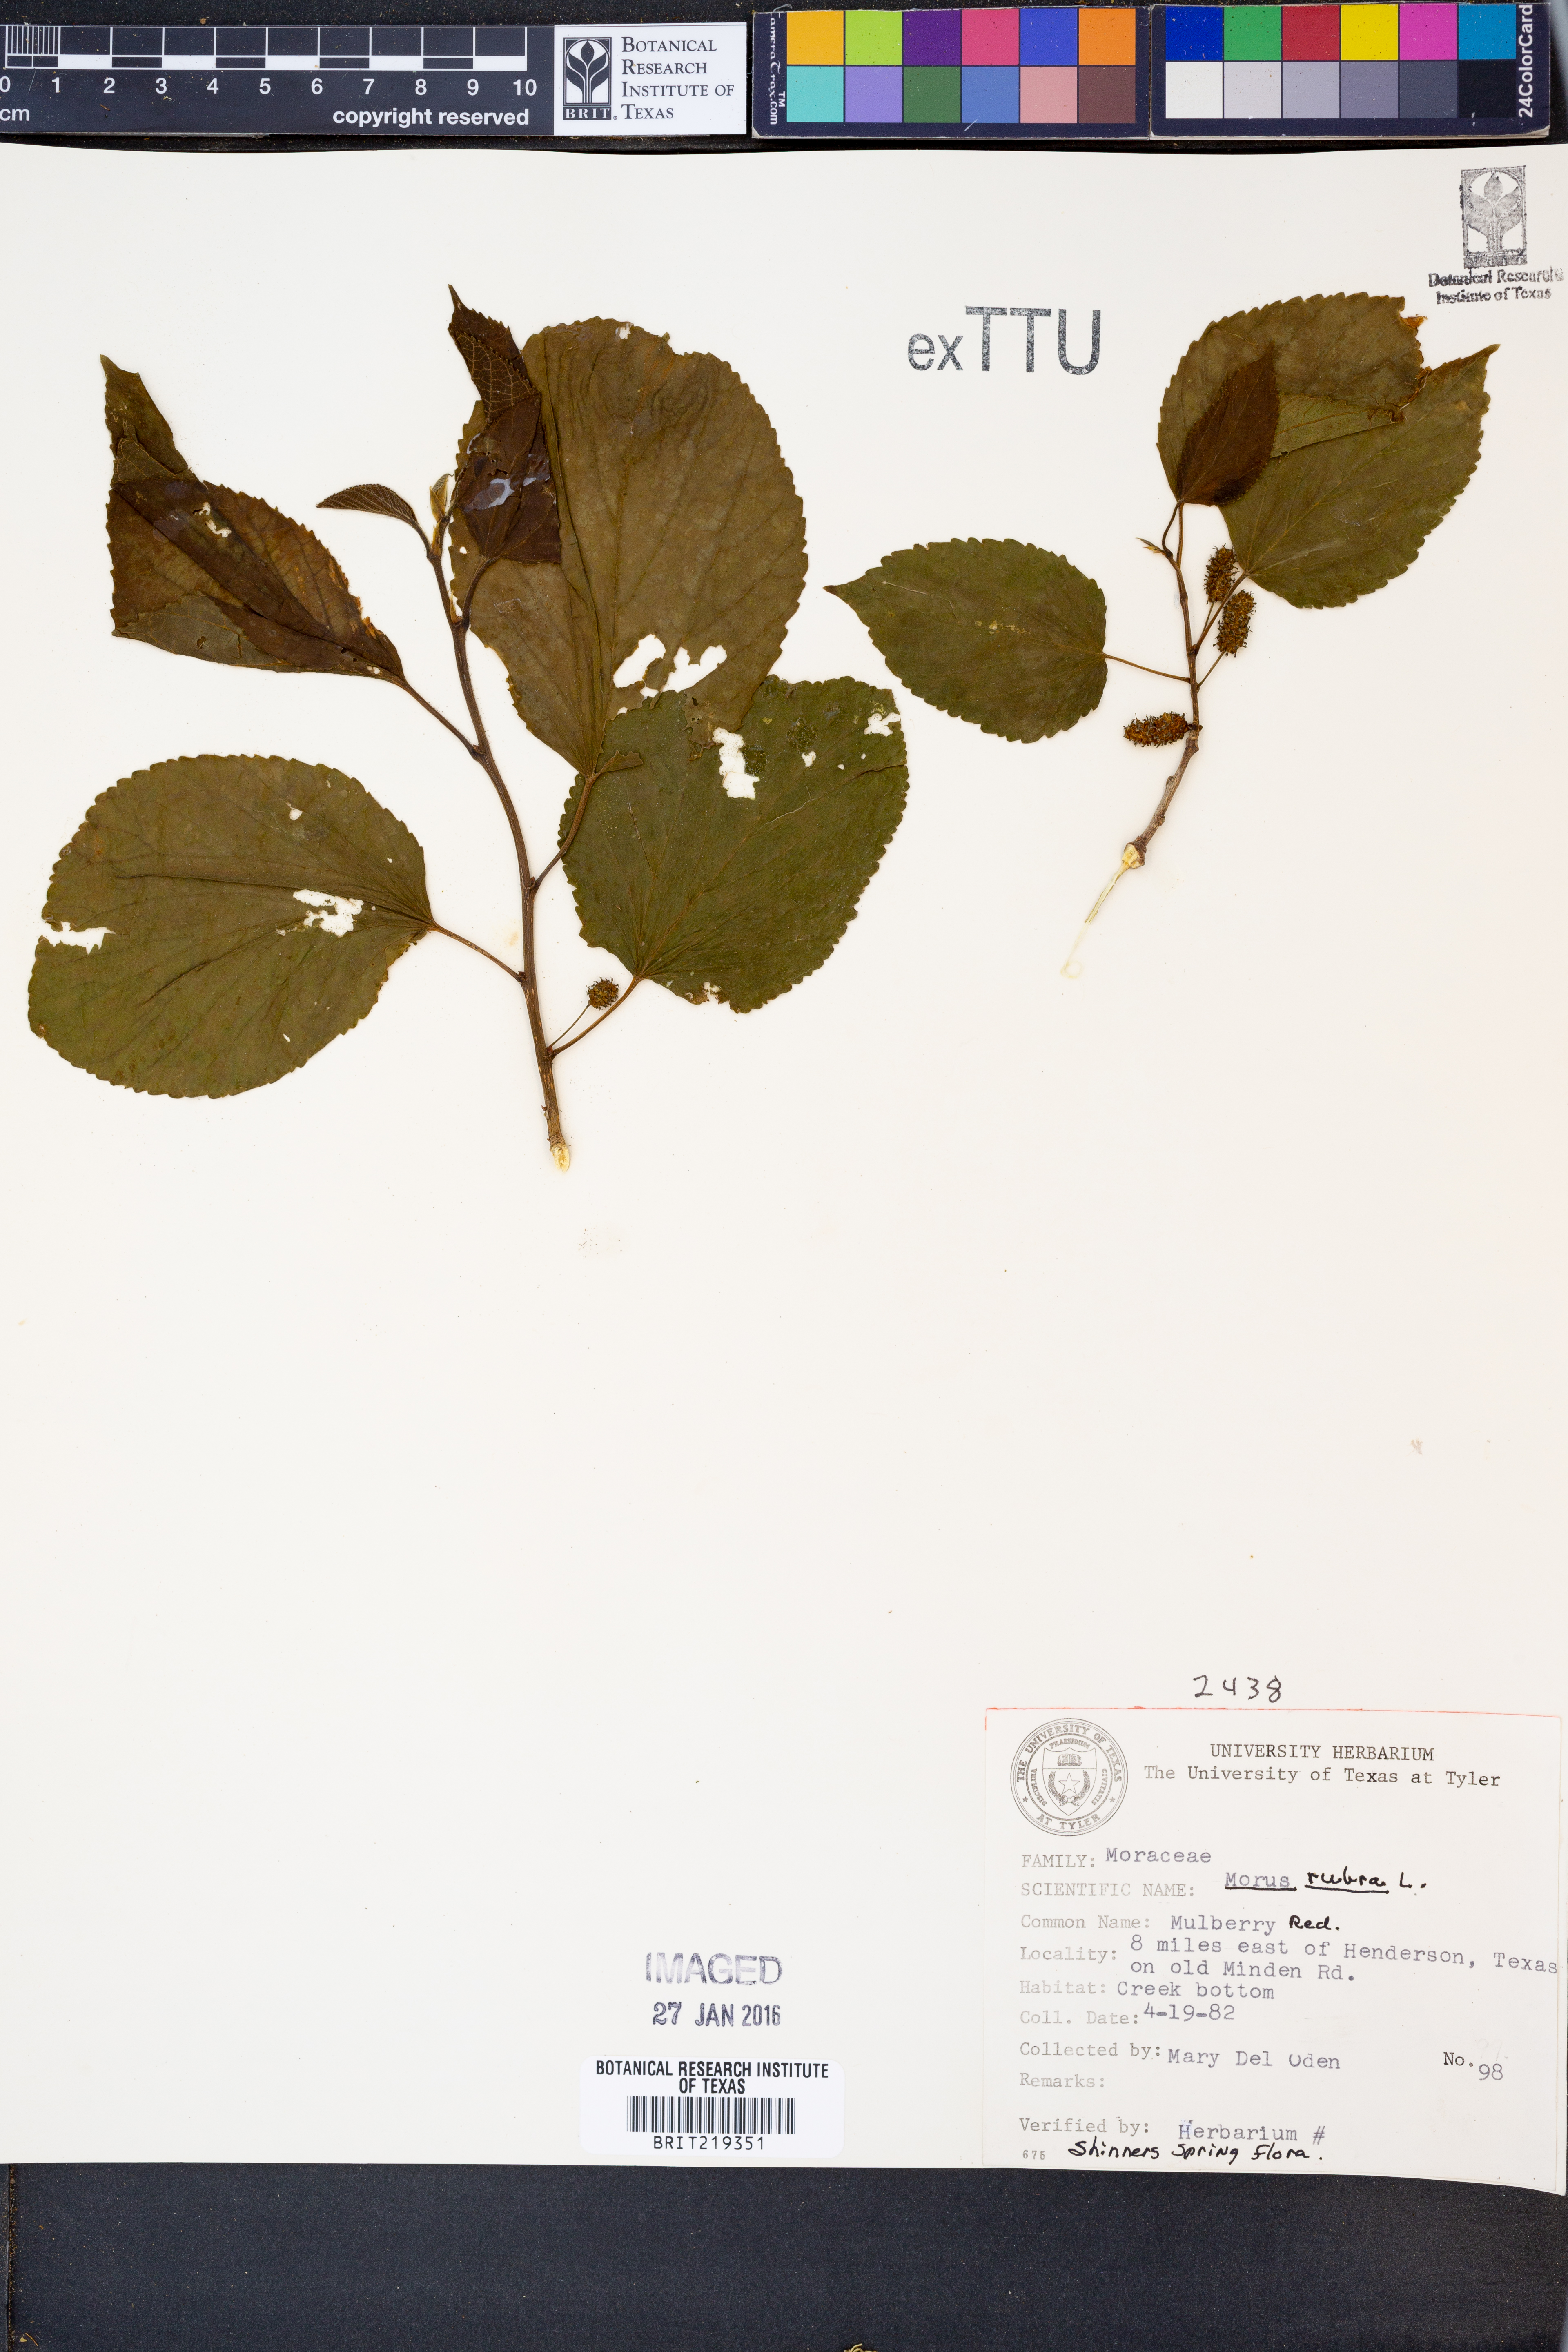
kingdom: Plantae
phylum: Tracheophyta
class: Magnoliopsida
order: Rosales
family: Moraceae
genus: Morus
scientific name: Morus rubra
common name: Red mulberry
